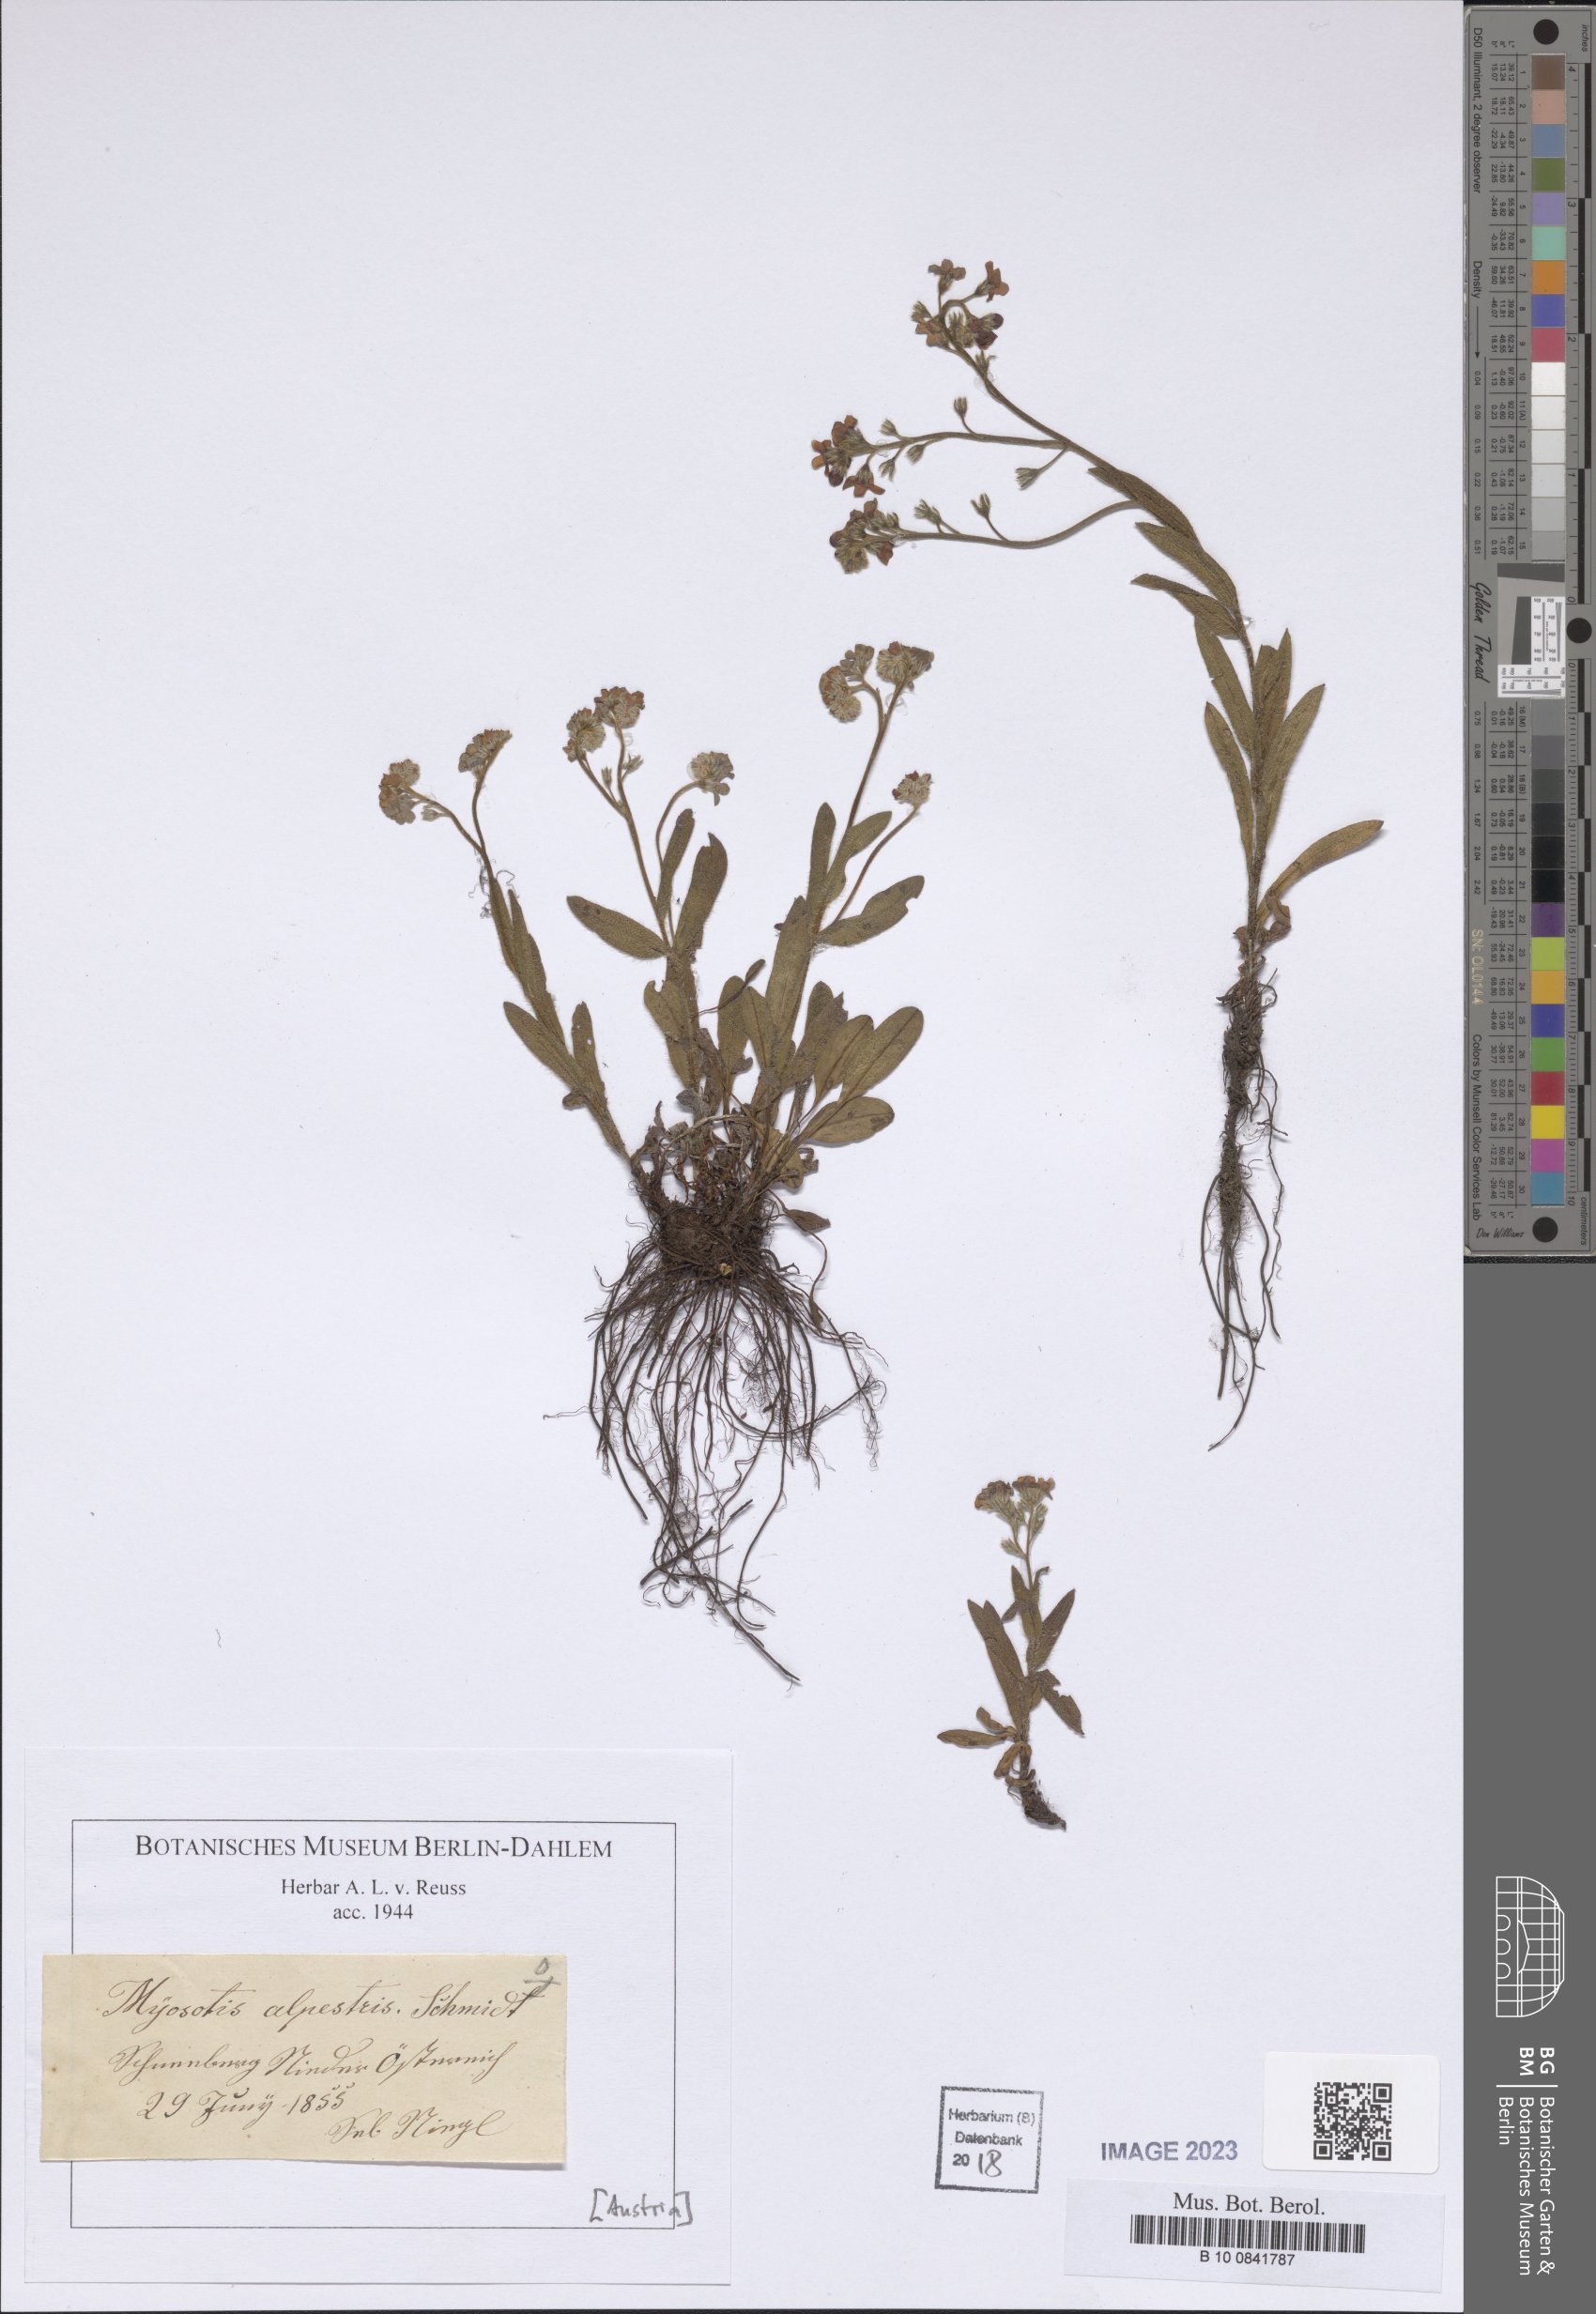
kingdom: Plantae
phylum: Tracheophyta
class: Magnoliopsida
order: Boraginales
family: Boraginaceae
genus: Myosotis
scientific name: Myosotis alpestris
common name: Alpine forget-me-not
